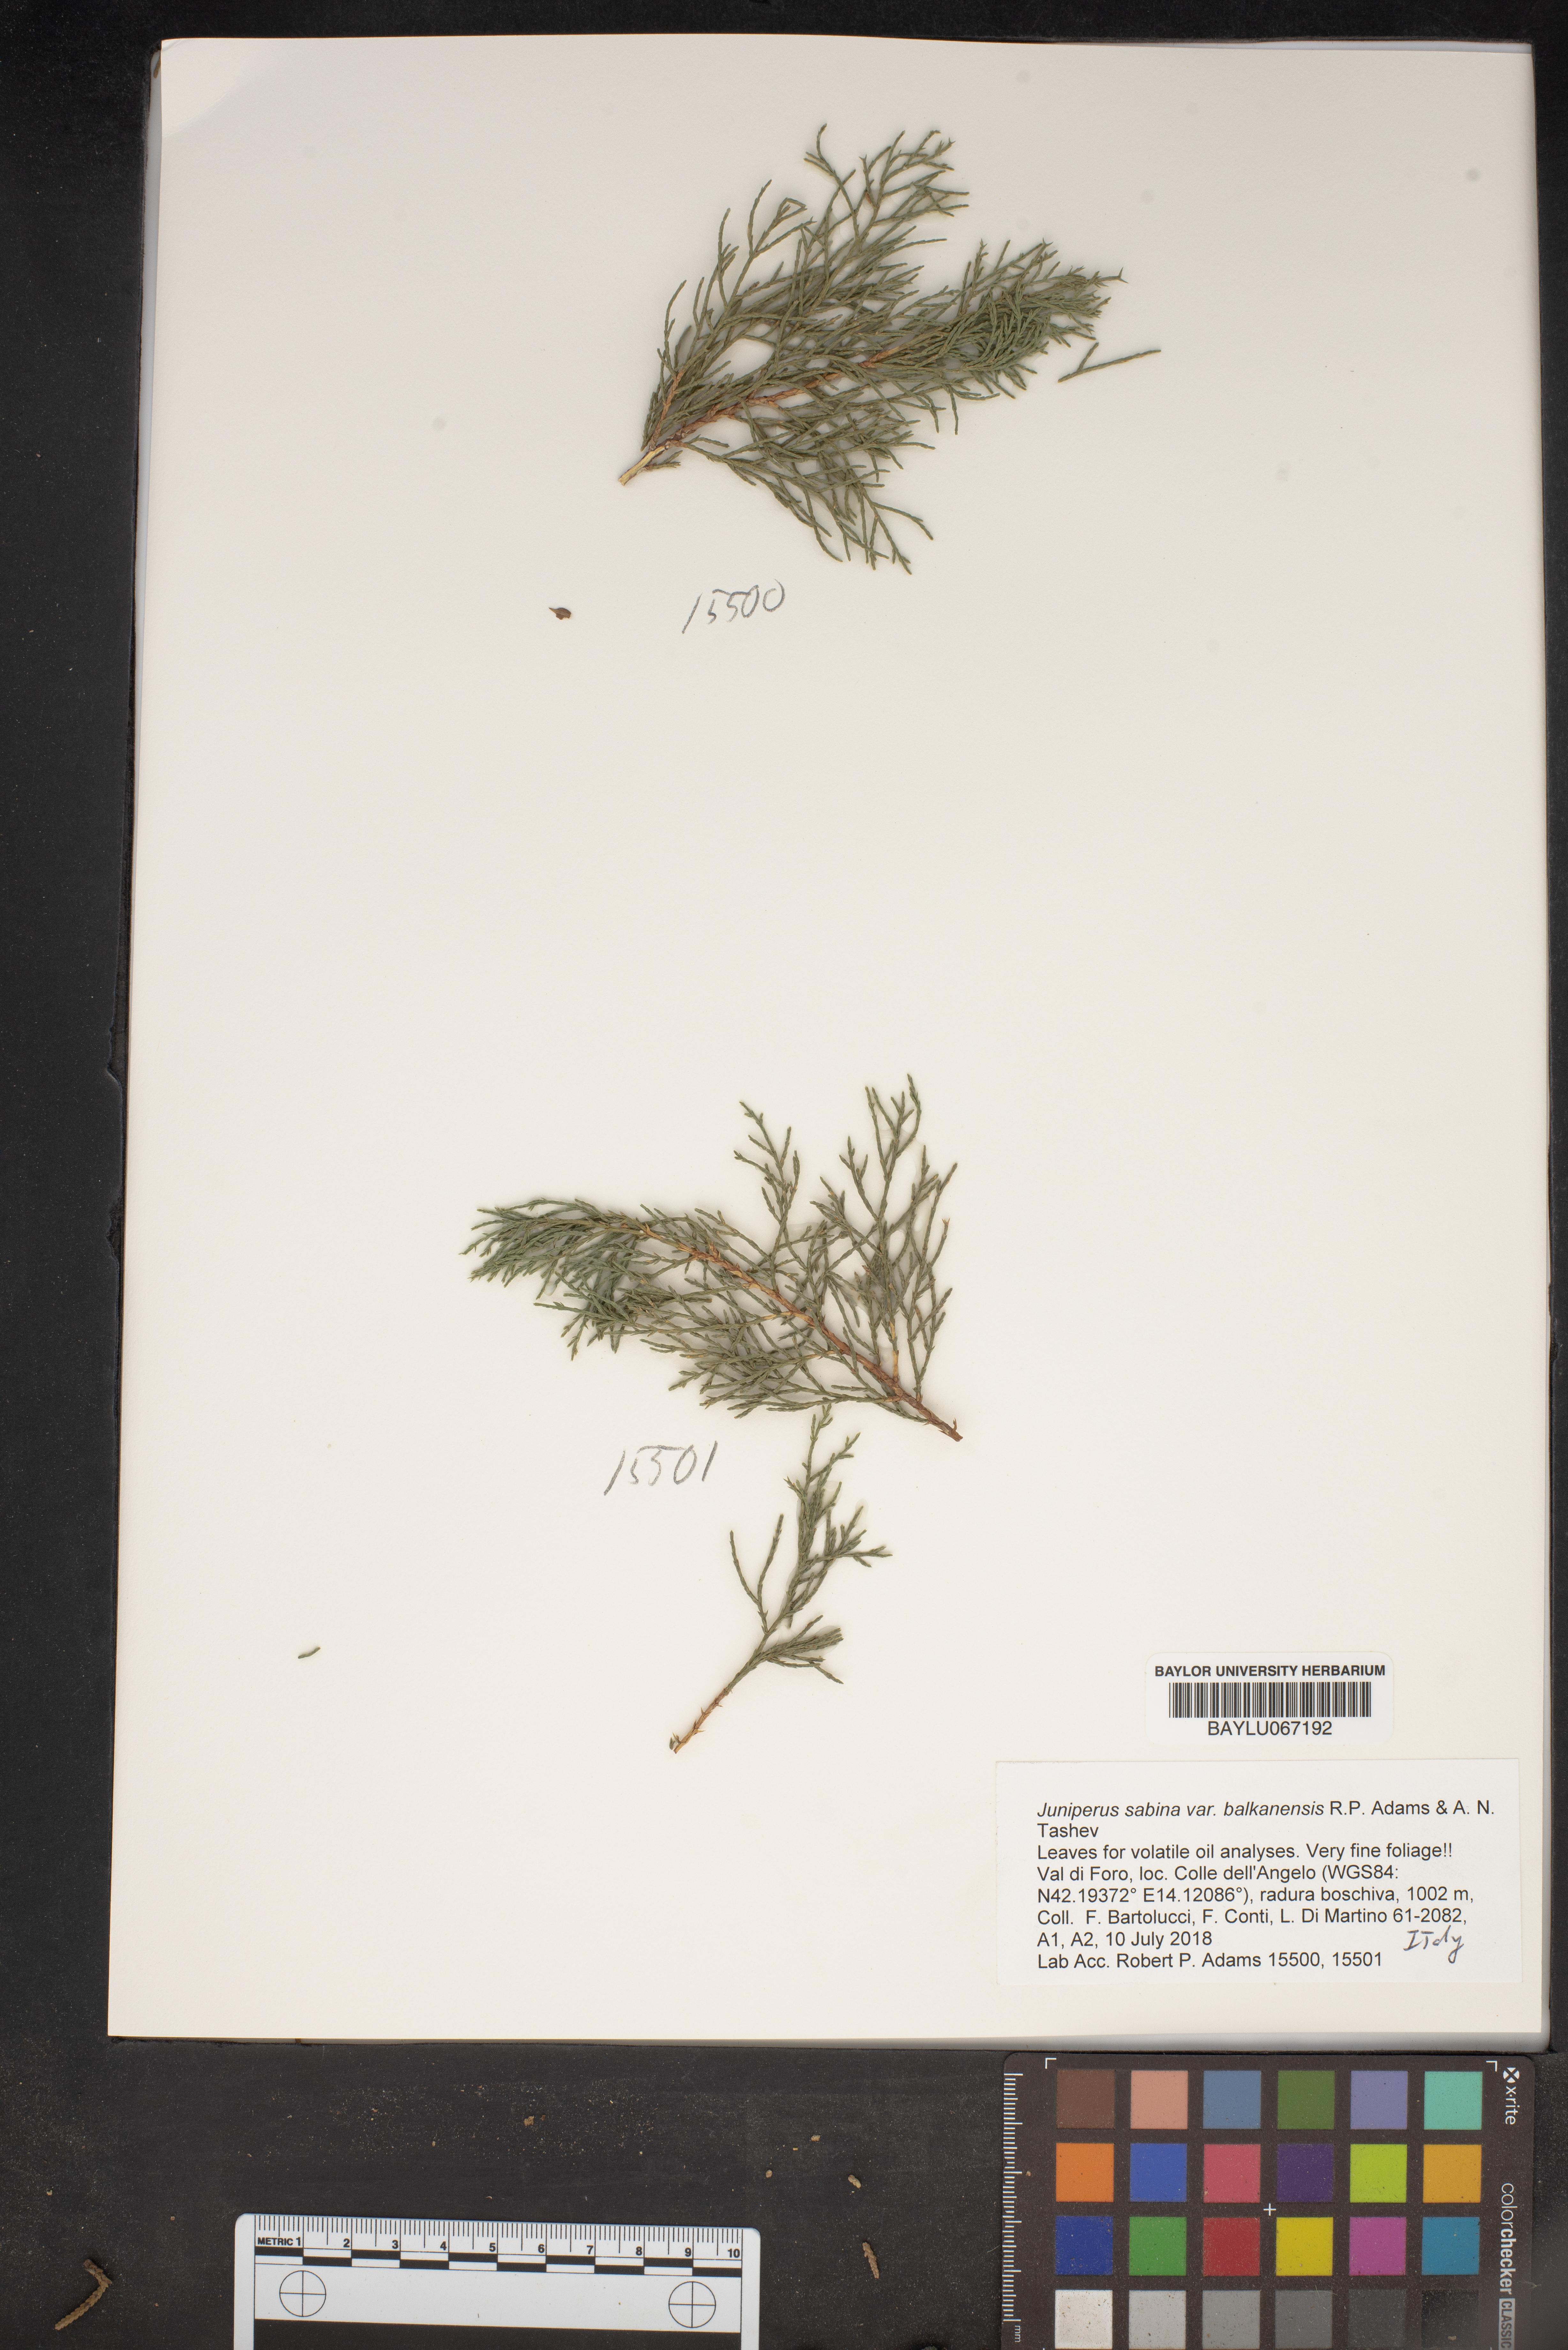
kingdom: Plantae
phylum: Tracheophyta
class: Pinopsida
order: Pinales
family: Cupressaceae
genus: Juniperus
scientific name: Juniperus sabina
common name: Savin
